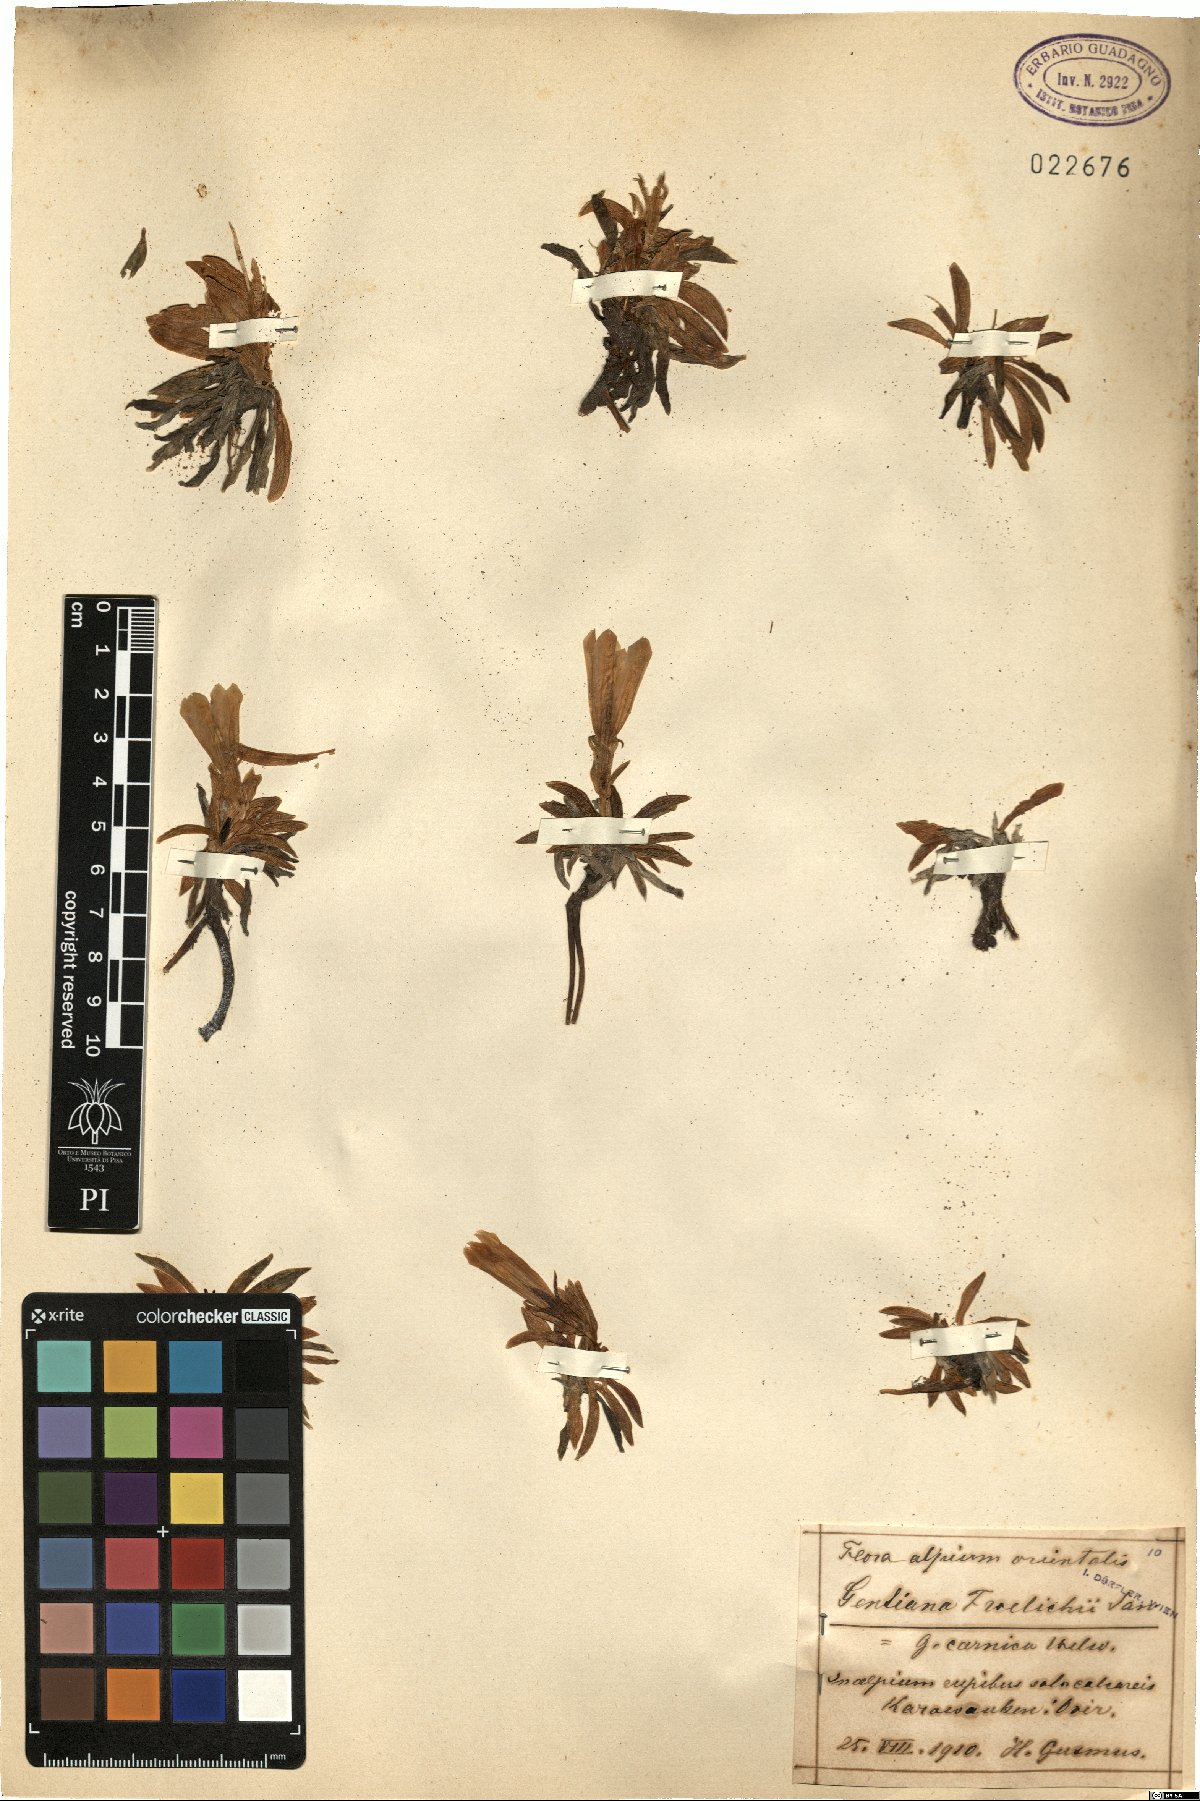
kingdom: Plantae
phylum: Tracheophyta
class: Magnoliopsida
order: Gentianales
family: Gentianaceae
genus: Gentiana
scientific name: Gentiana froelichii
